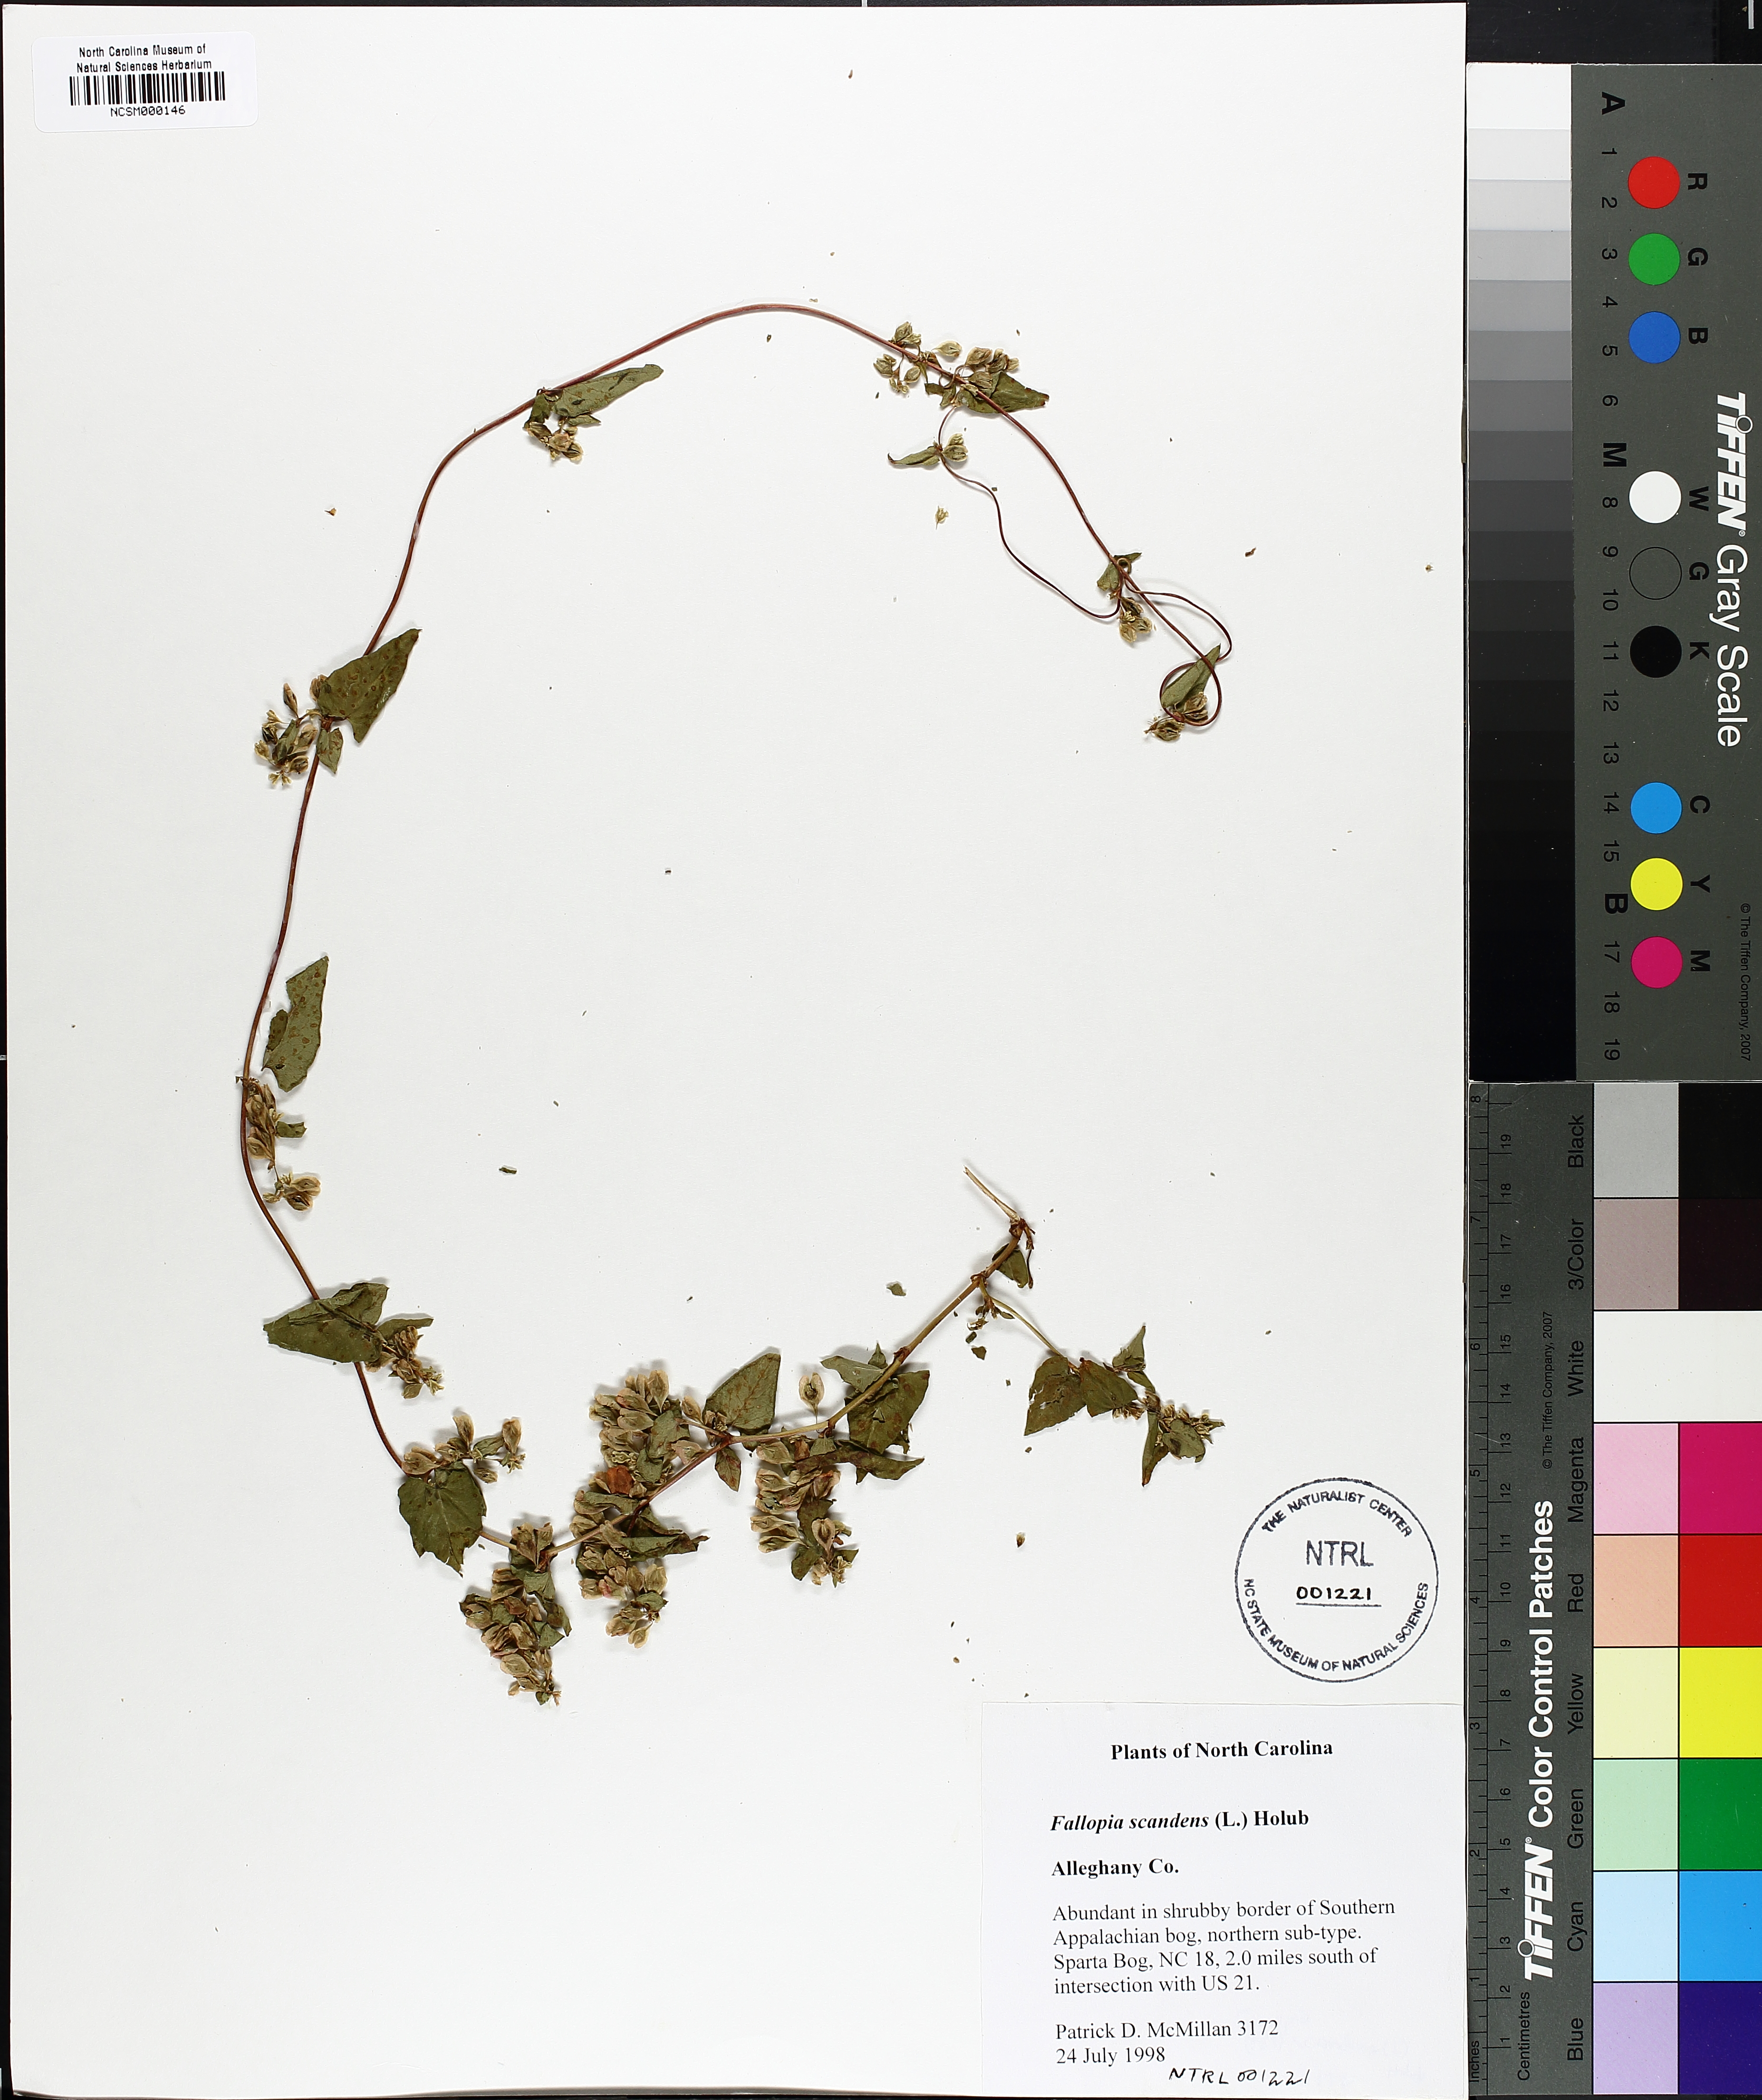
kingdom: Plantae
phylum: Tracheophyta
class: Magnoliopsida
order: Caryophyllales
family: Polygonaceae
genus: Fallopia
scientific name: Fallopia scandens
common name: Climbing false buckwheat
